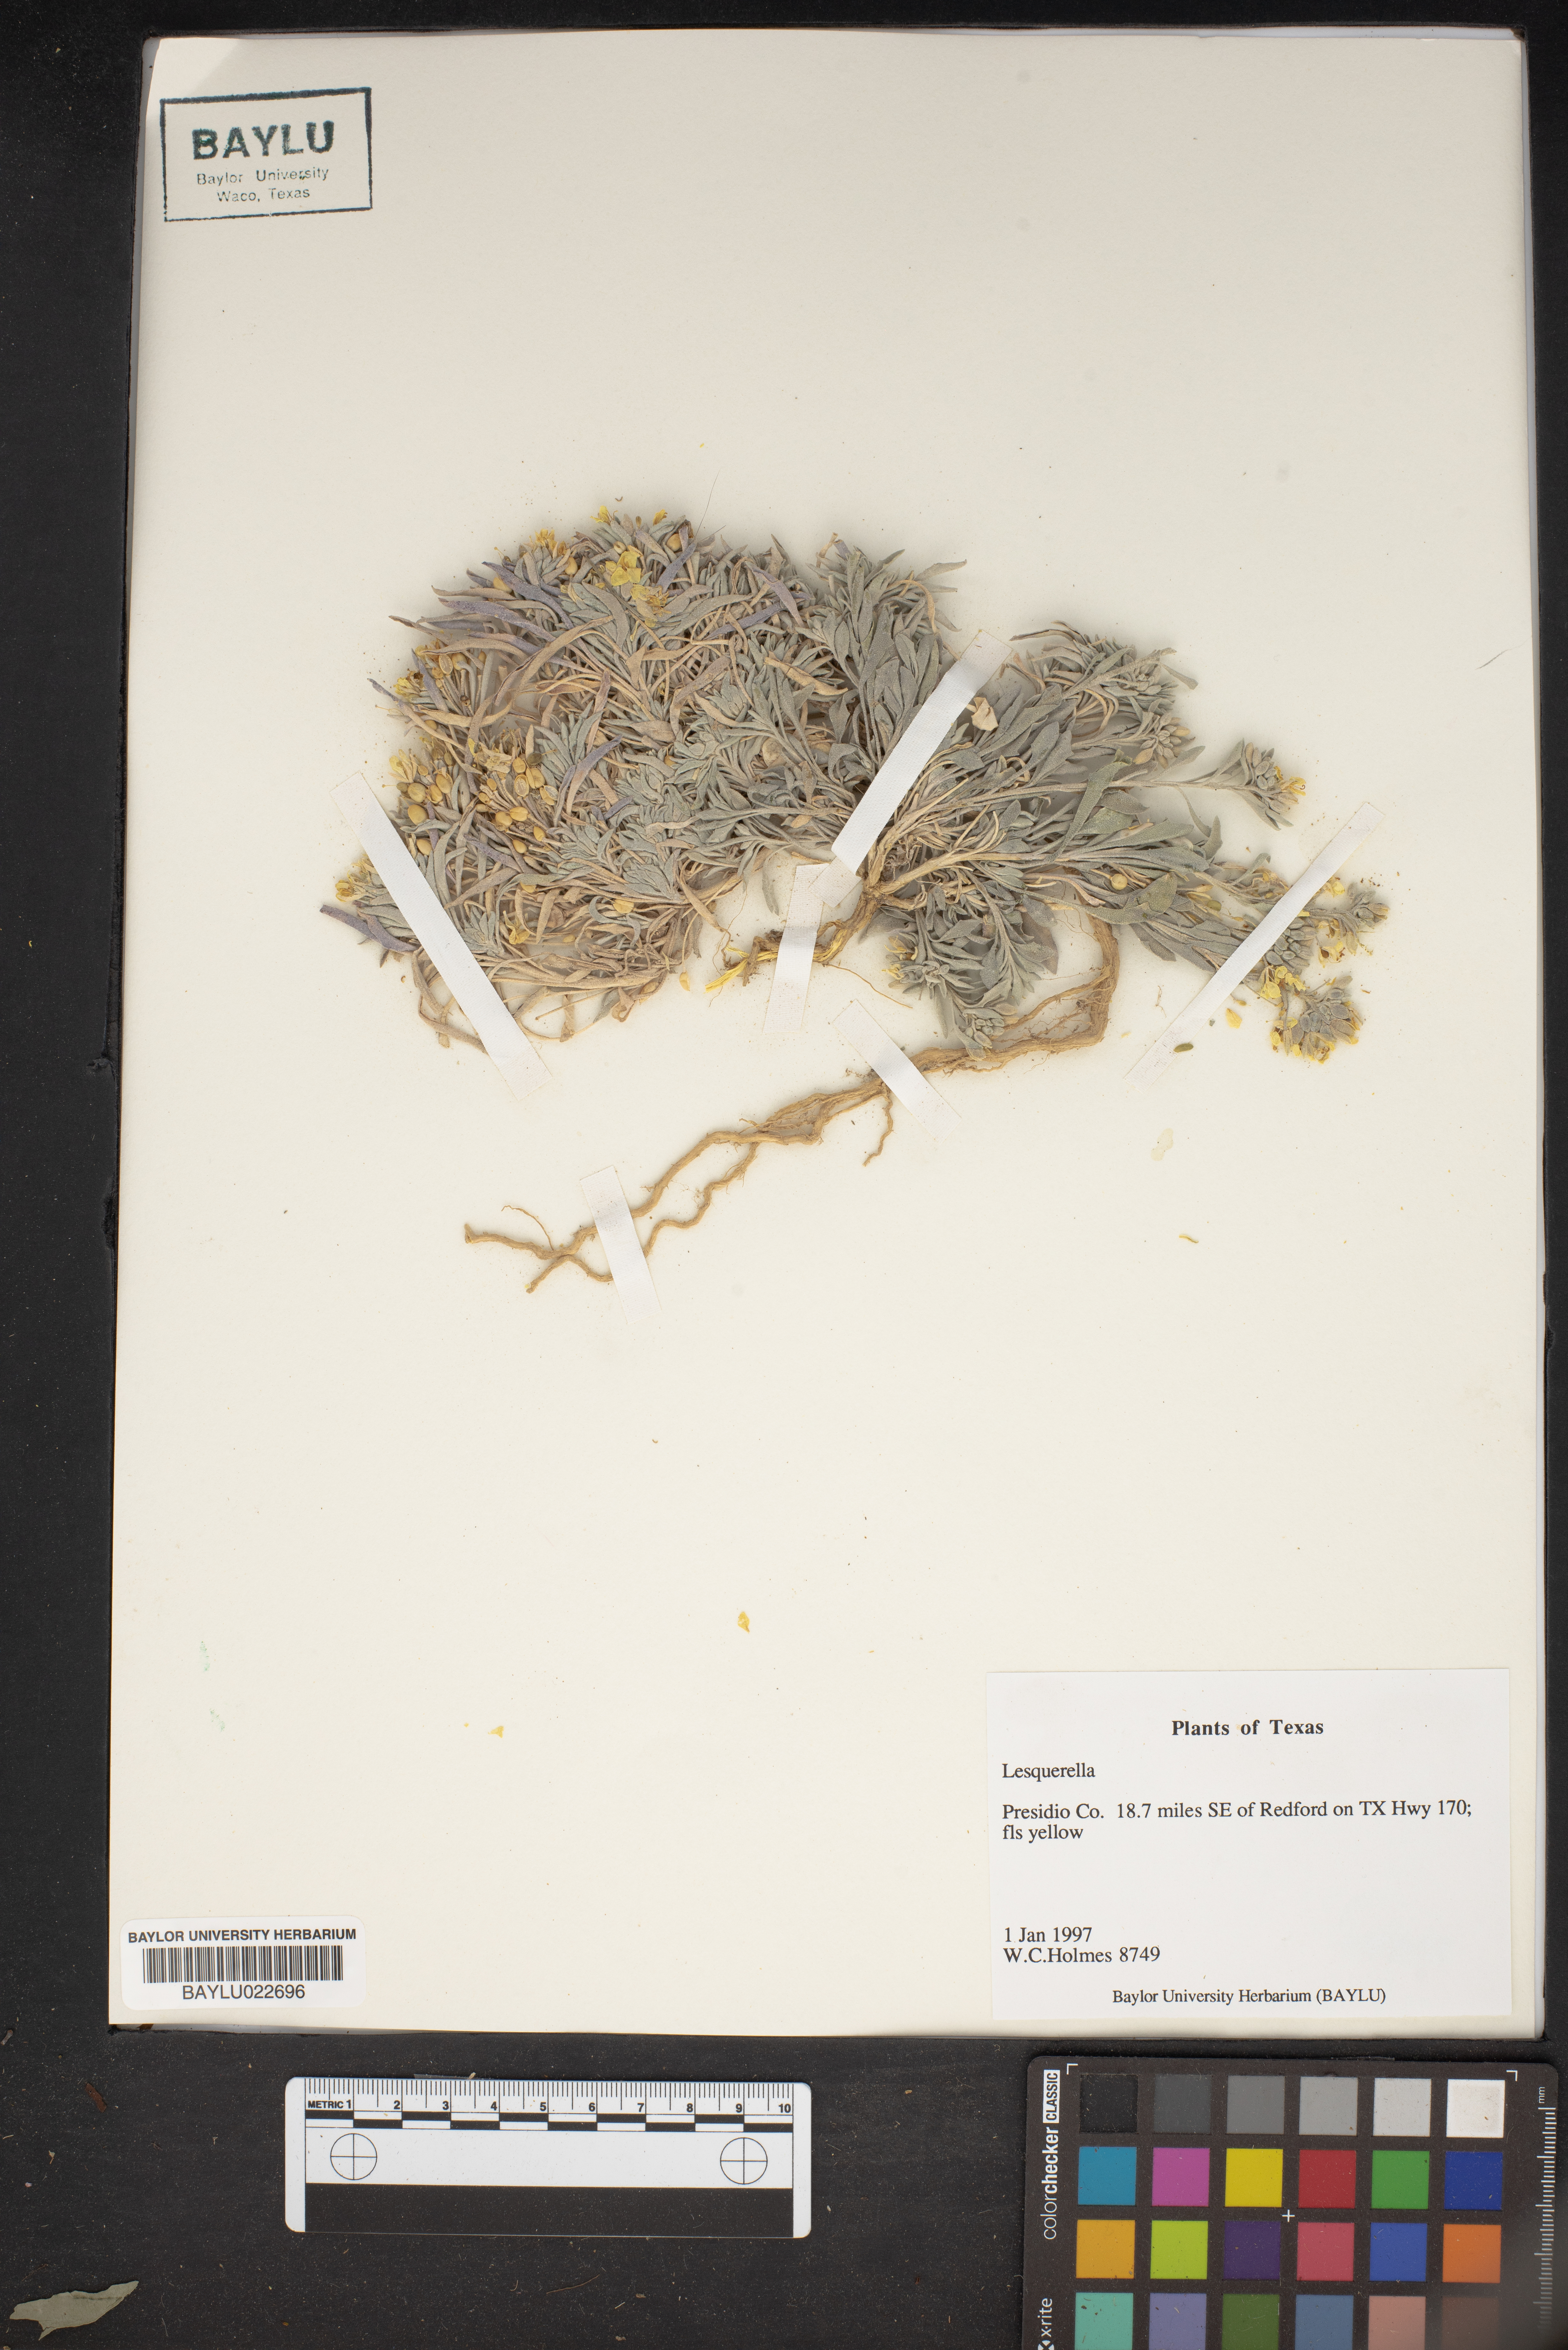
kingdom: Chromista
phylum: Cercozoa
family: Psammonobiotidae
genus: Lesquerella
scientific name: Lesquerella
